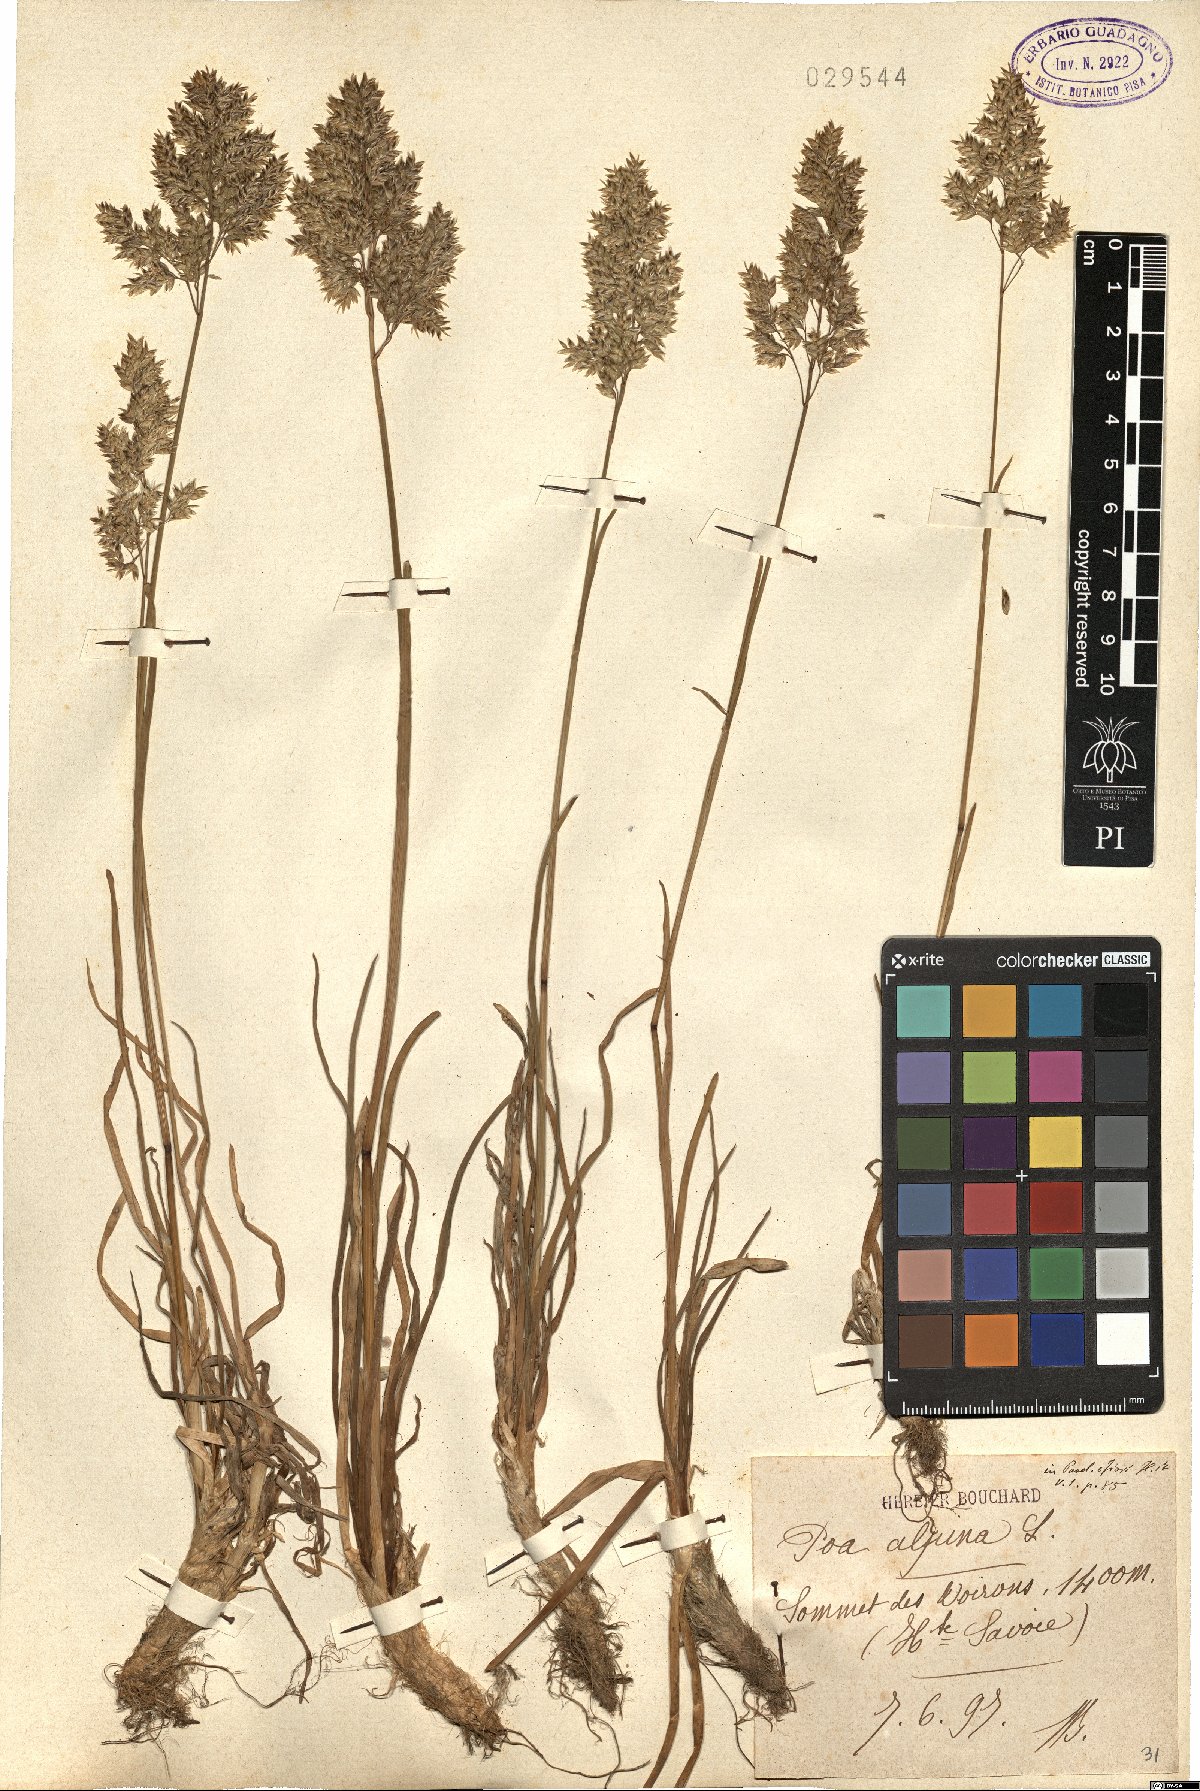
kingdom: Plantae
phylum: Tracheophyta
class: Liliopsida
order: Poales
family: Poaceae
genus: Poa
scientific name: Poa alpina
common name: Alpine bluegrass
